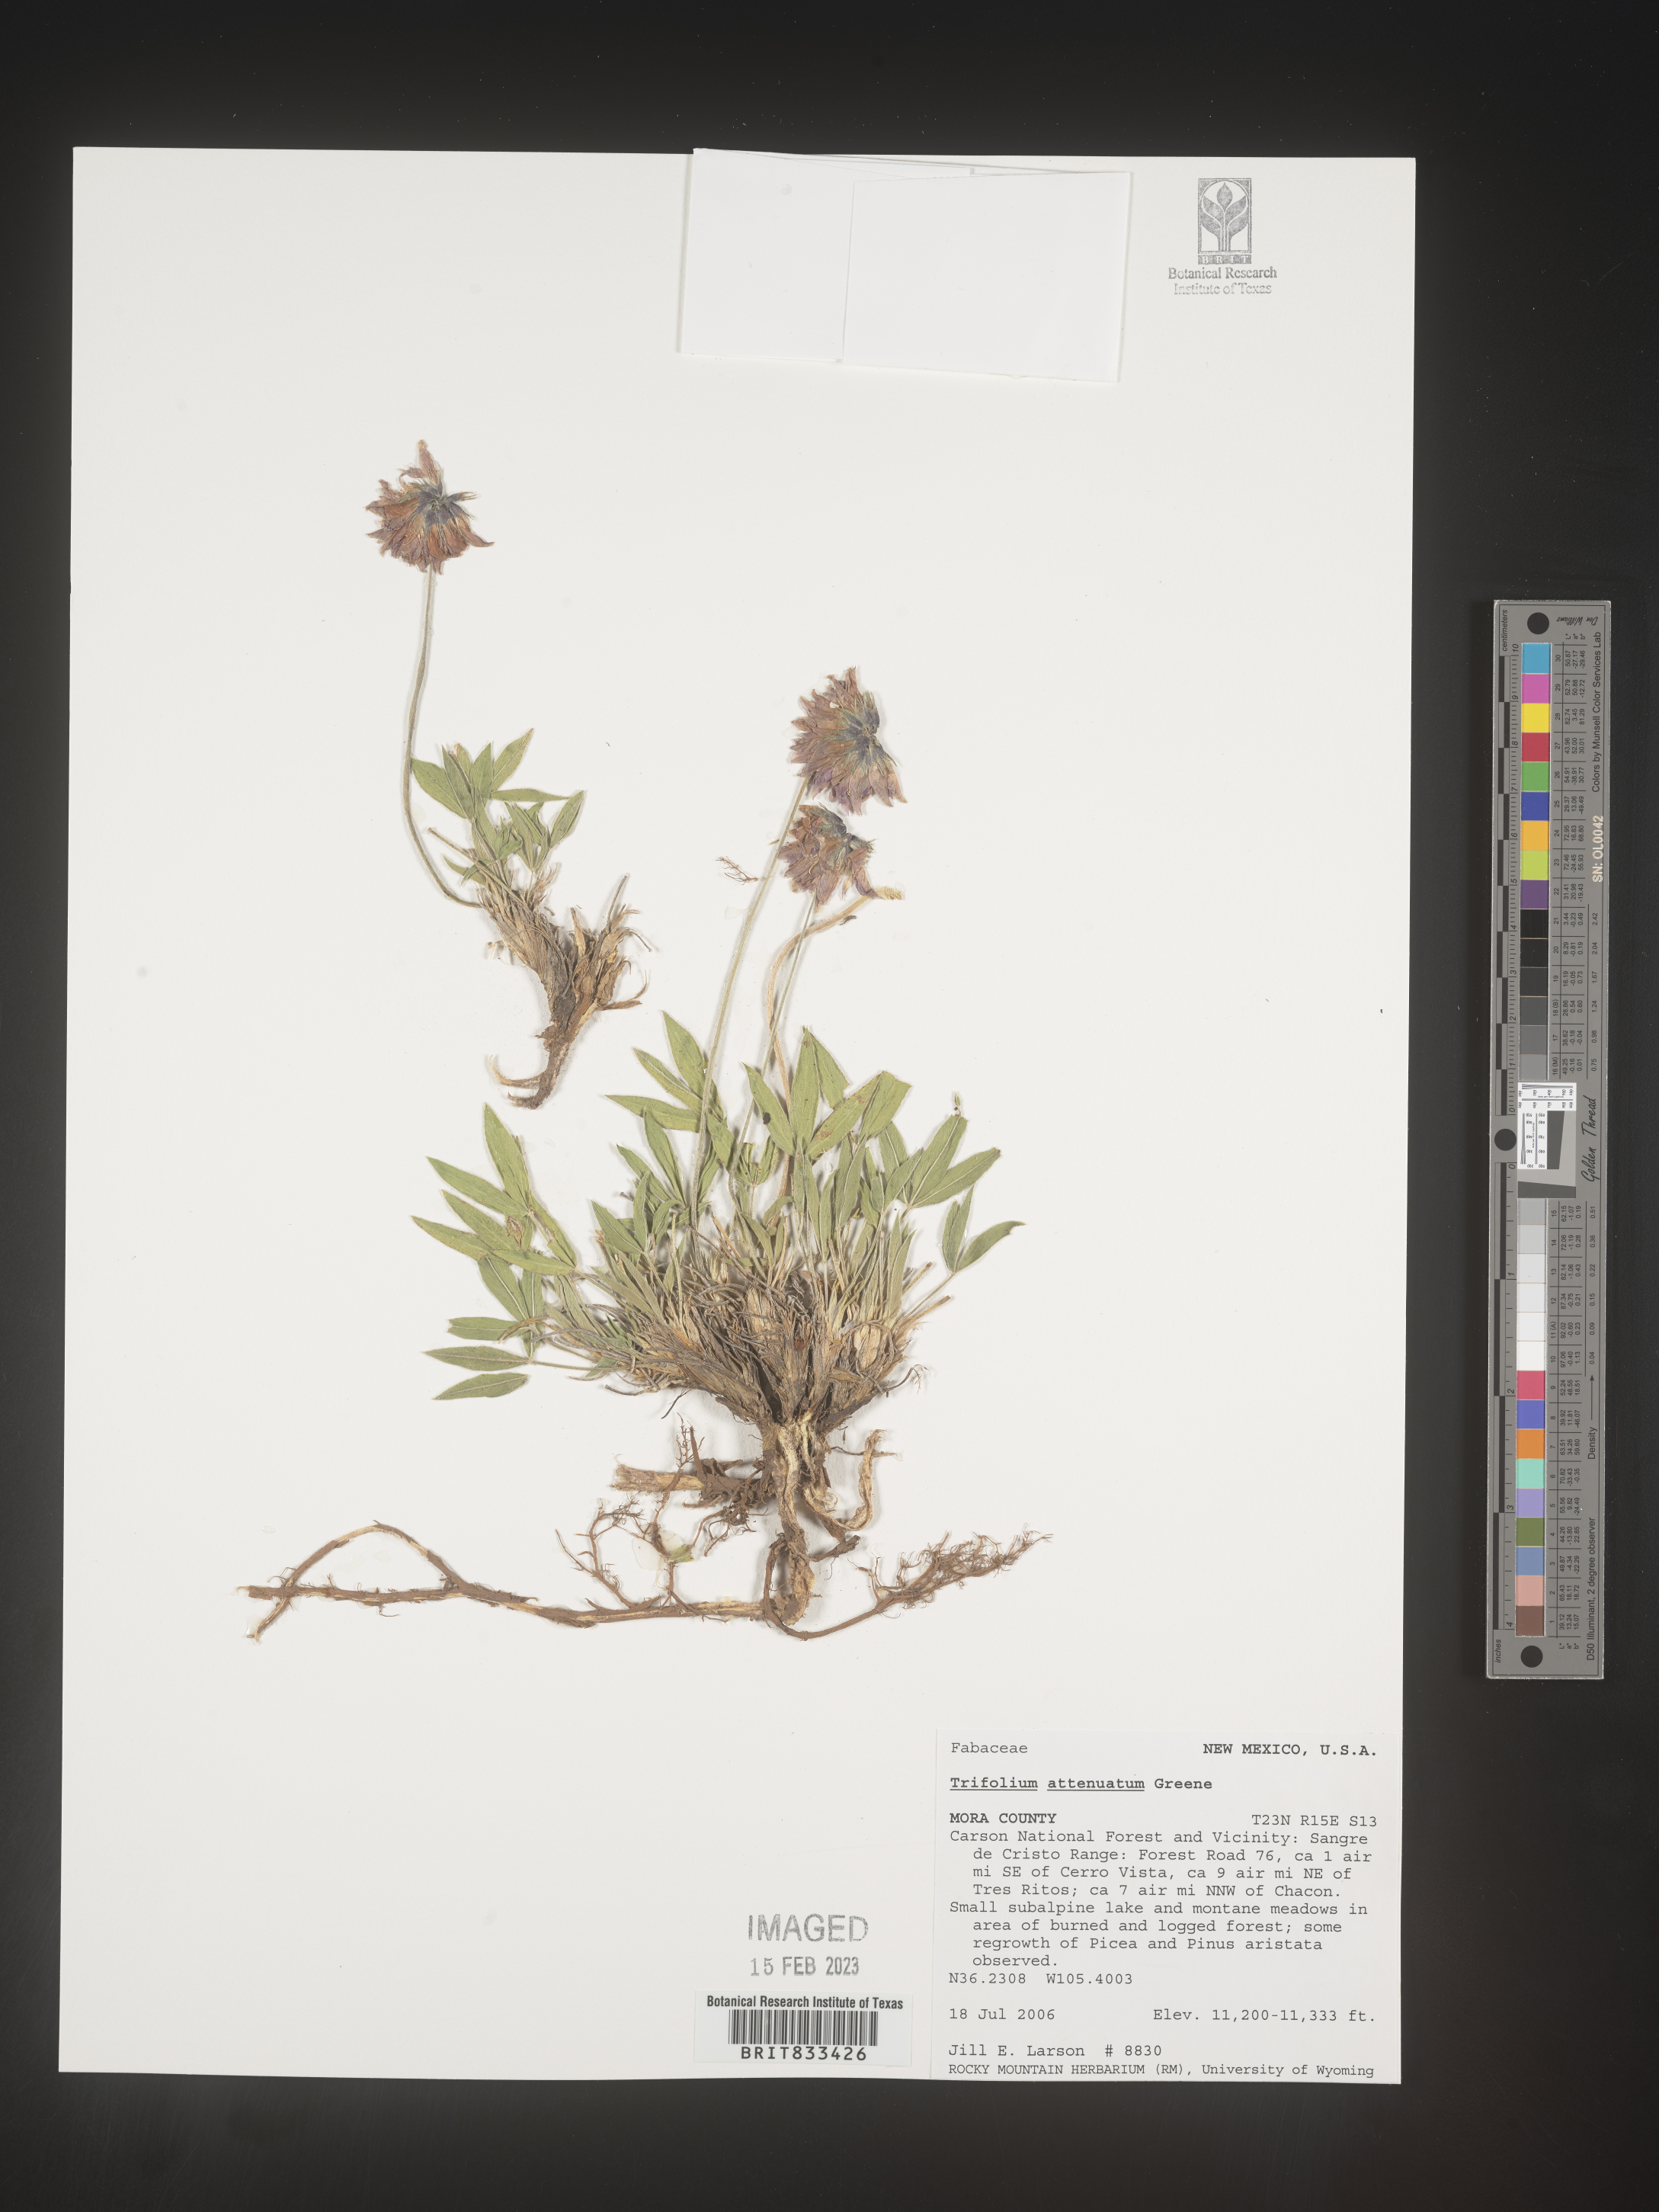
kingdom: Plantae
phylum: Tracheophyta
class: Magnoliopsida
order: Fabales
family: Fabaceae
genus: Trifolium
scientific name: Trifolium attenuatum
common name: Rocky mountain clover
